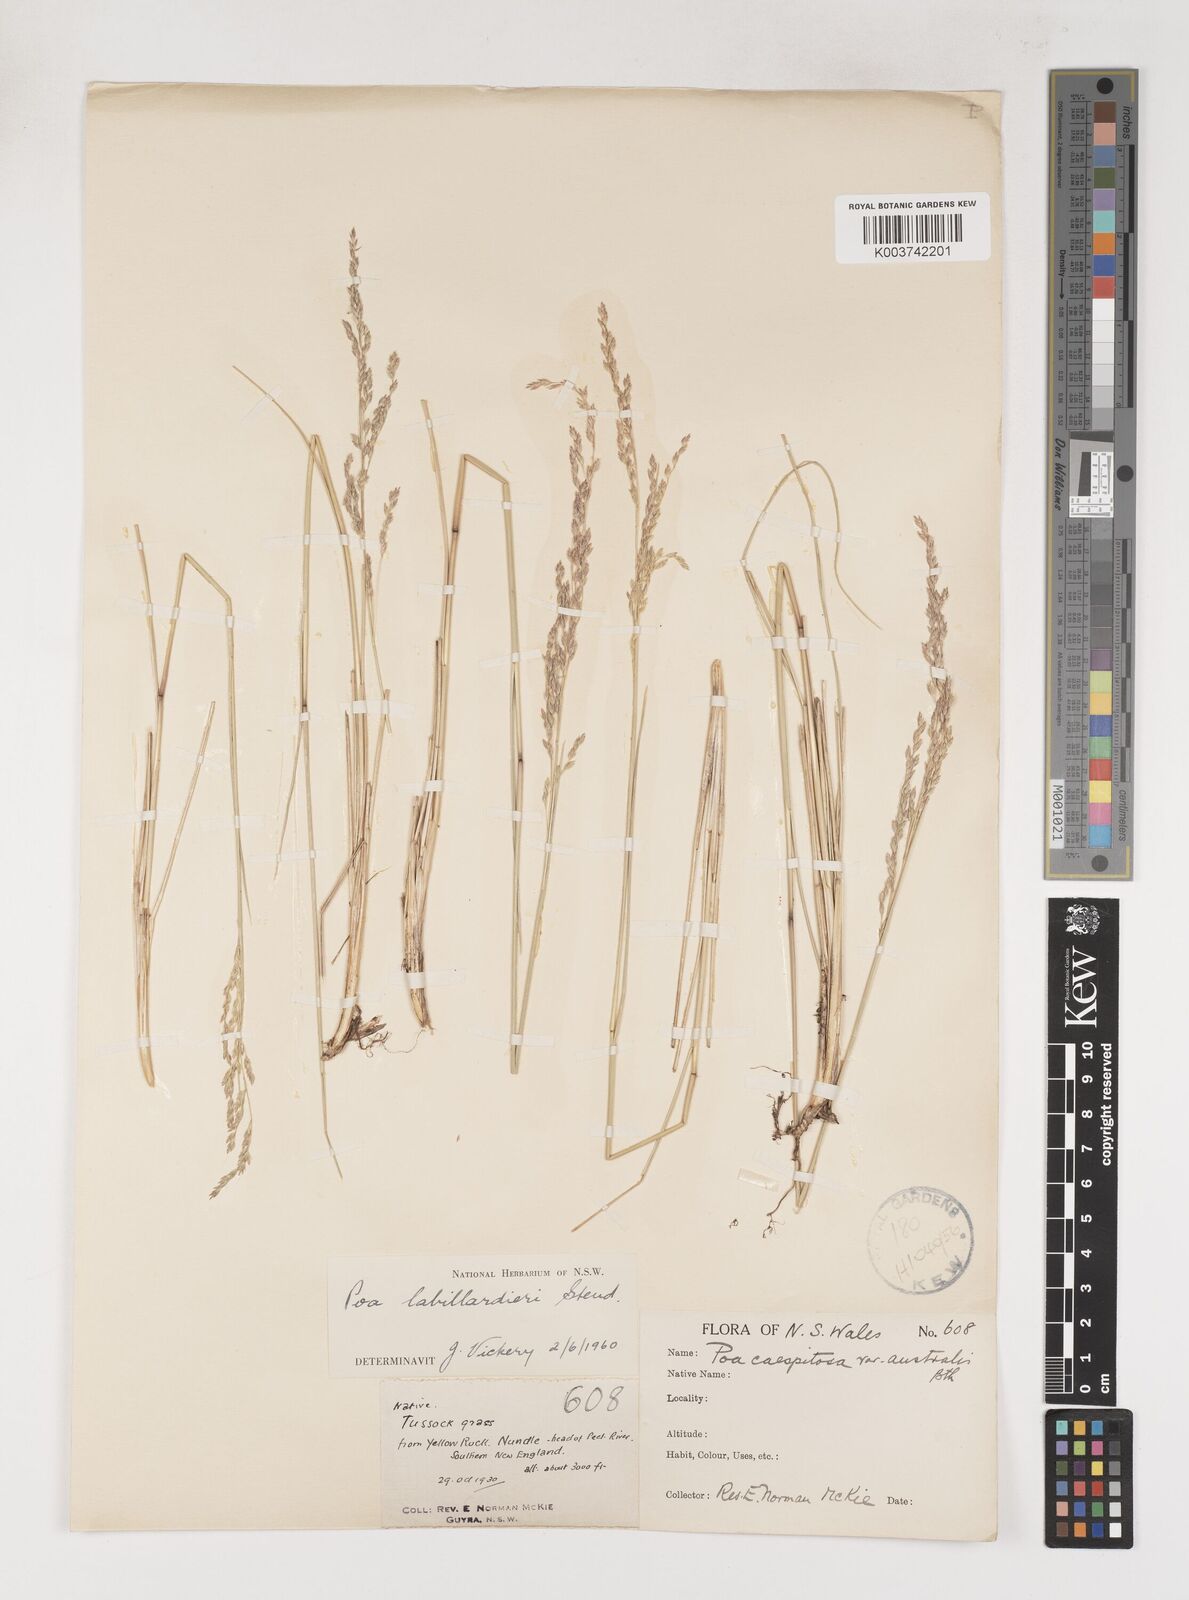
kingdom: Plantae
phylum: Tracheophyta
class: Liliopsida
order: Poales
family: Poaceae
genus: Poa
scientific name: Poa labillardierei
